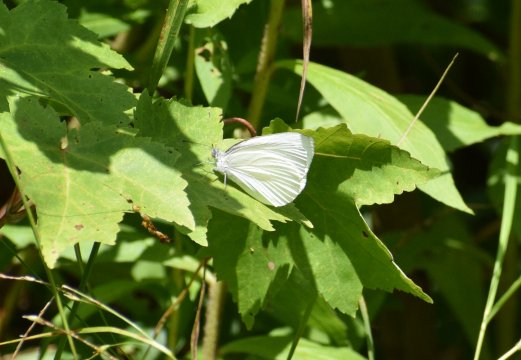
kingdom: Animalia
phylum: Arthropoda
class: Insecta
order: Lepidoptera
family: Pieridae
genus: Pieris
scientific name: Pieris oleracea
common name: Mustard White
